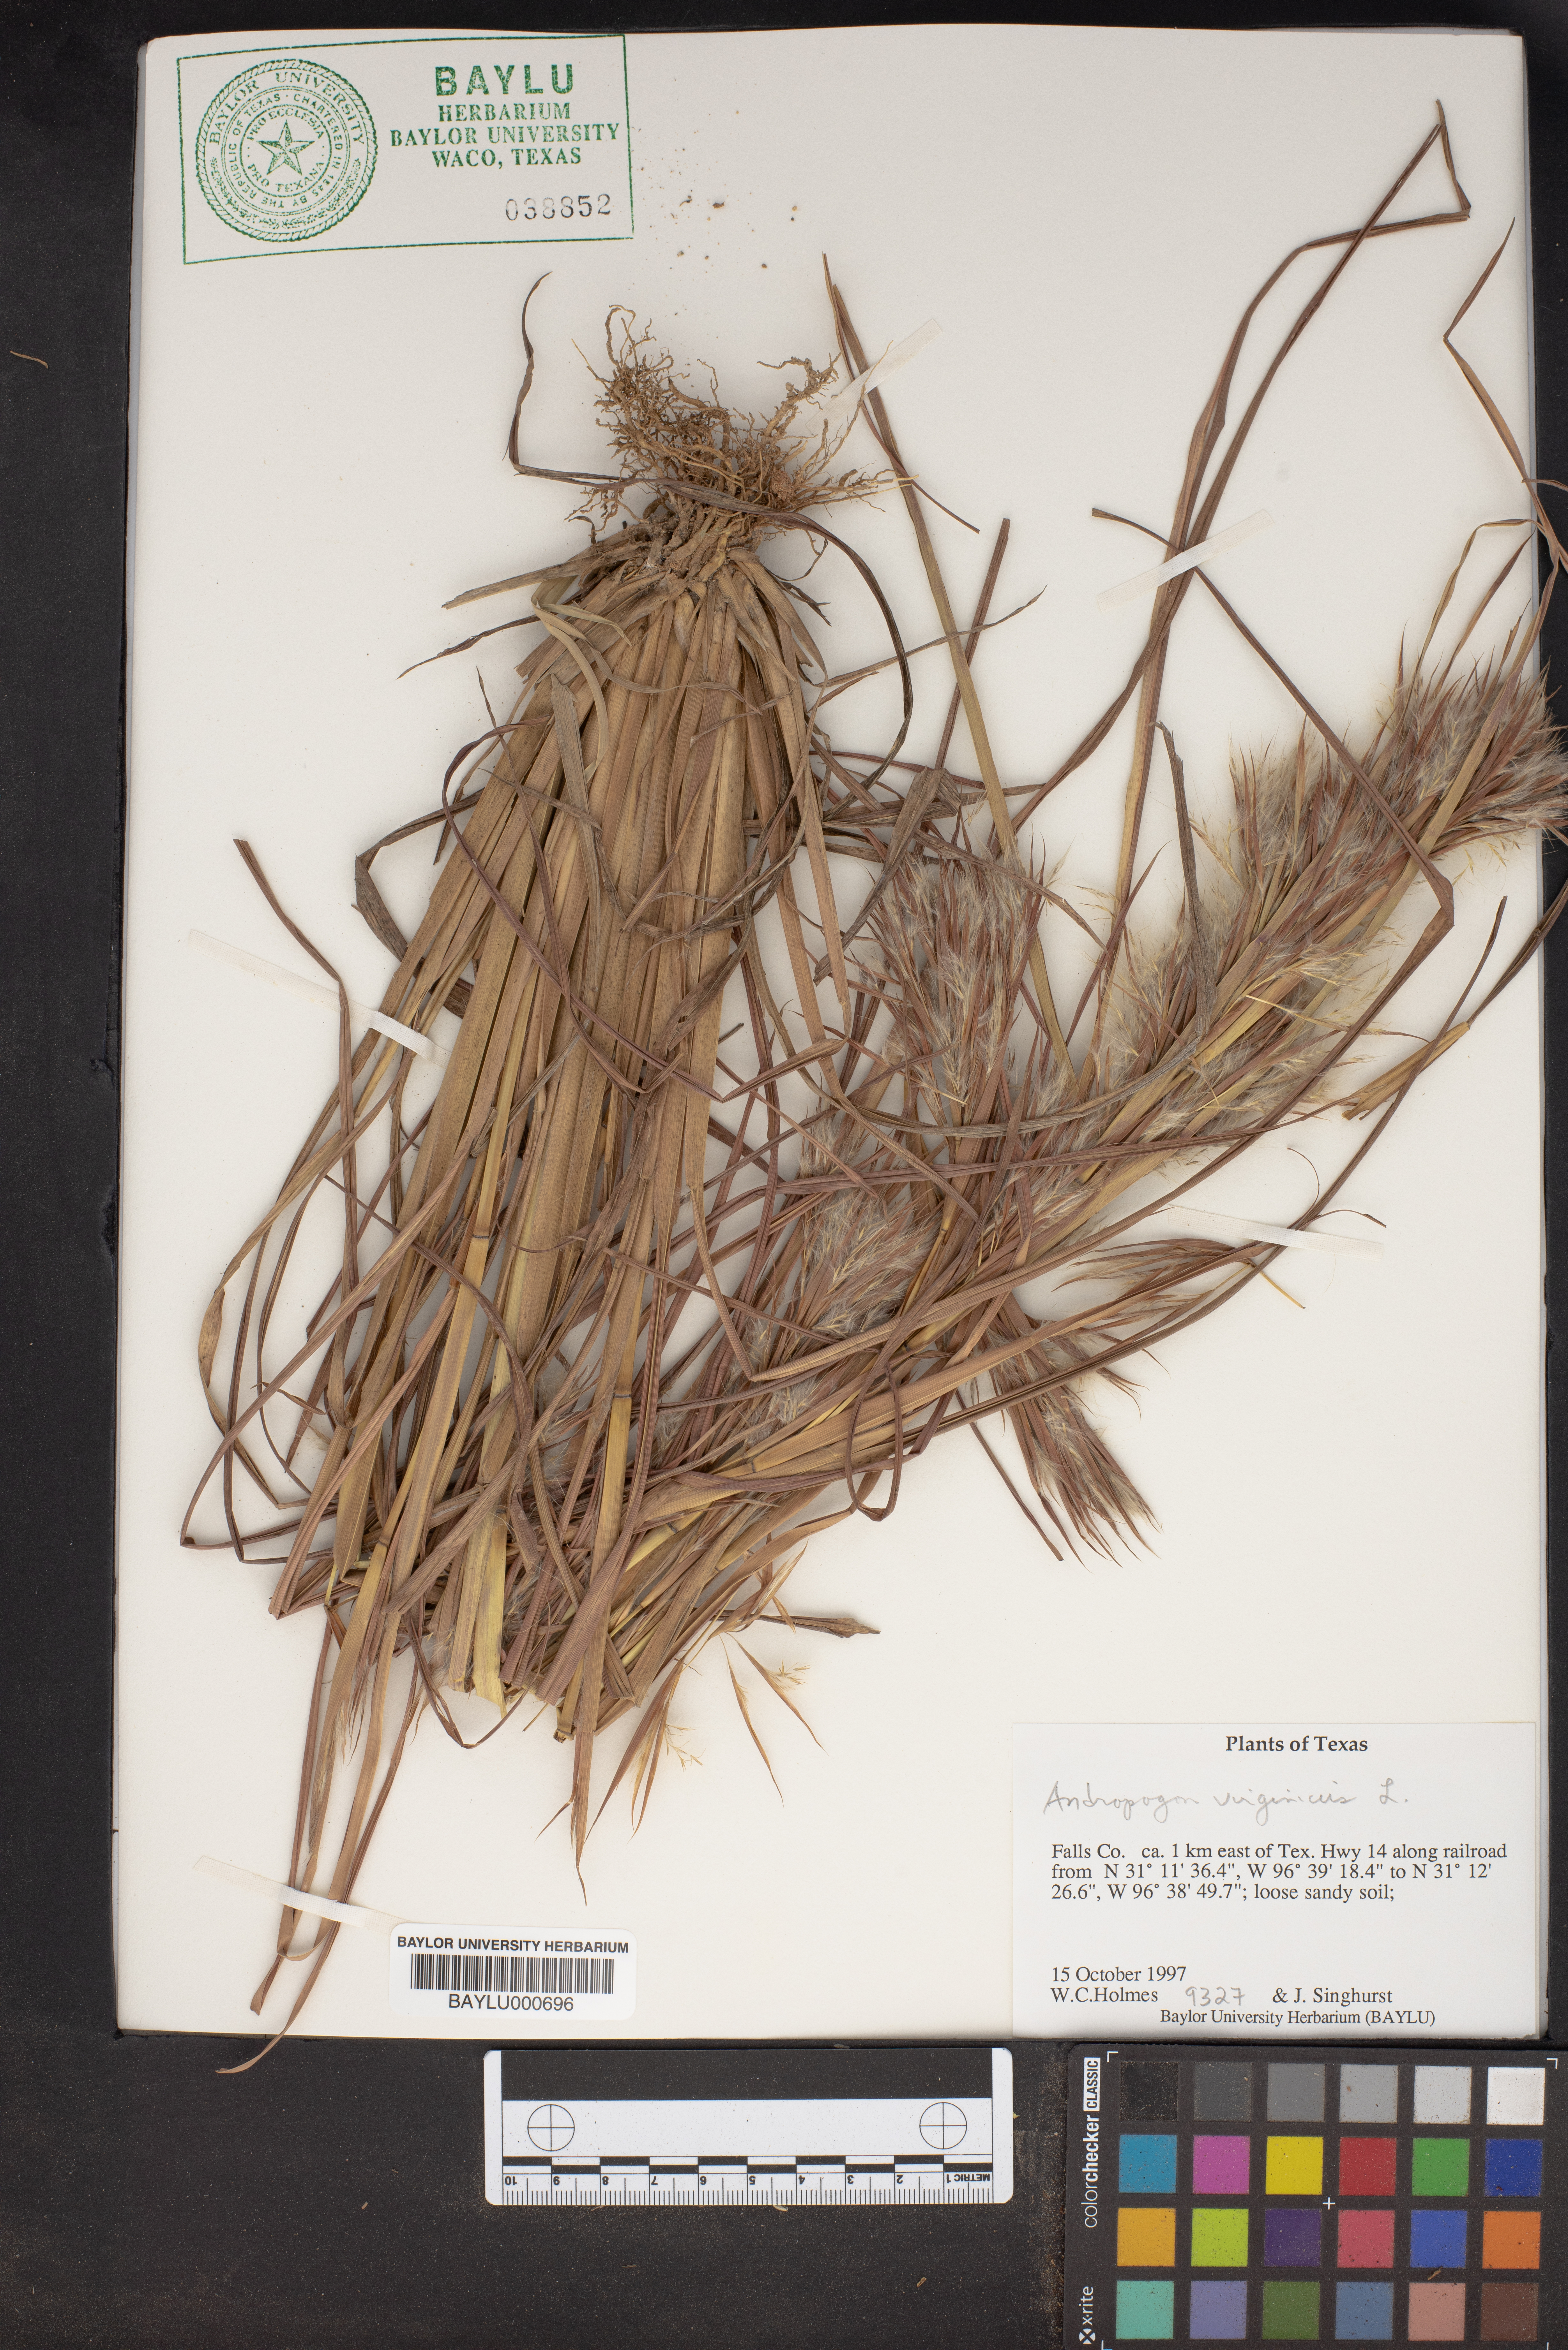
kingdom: Plantae
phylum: Tracheophyta
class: Liliopsida
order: Poales
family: Poaceae
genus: Andropogon
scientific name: Andropogon virginicus
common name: Broomsedge bluestem
